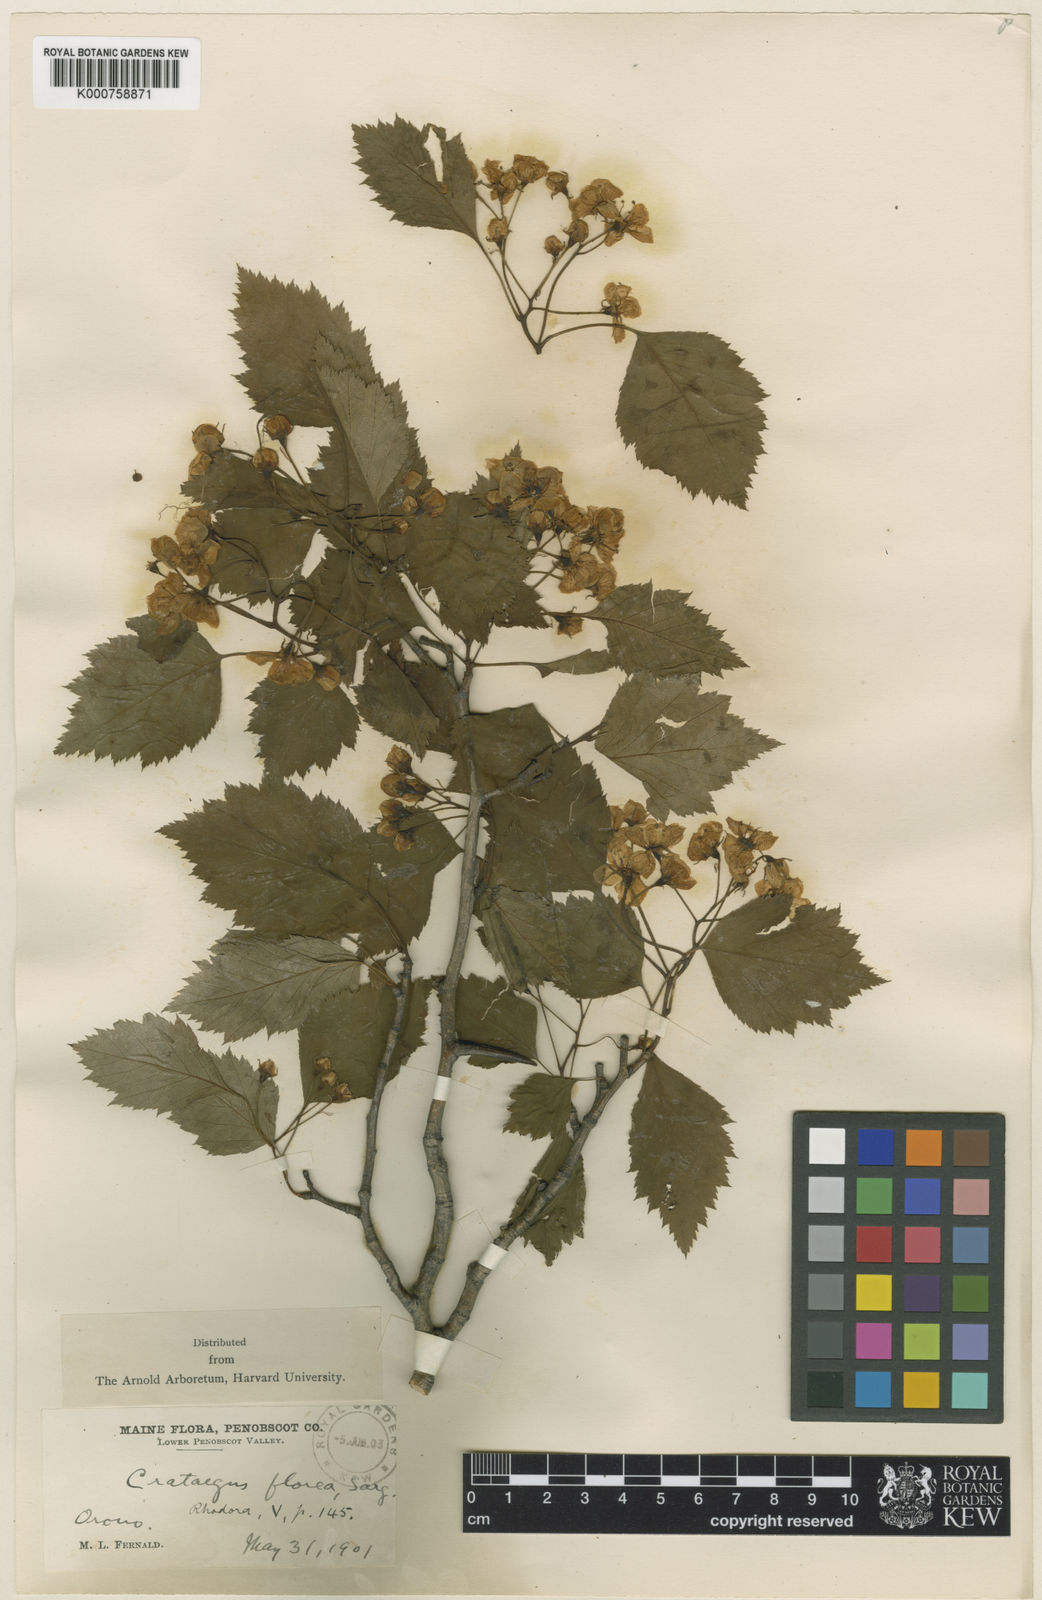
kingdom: Plantae
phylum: Tracheophyta
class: Magnoliopsida
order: Rosales
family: Rosaceae
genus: Crataegus
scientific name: Crataegus florea
